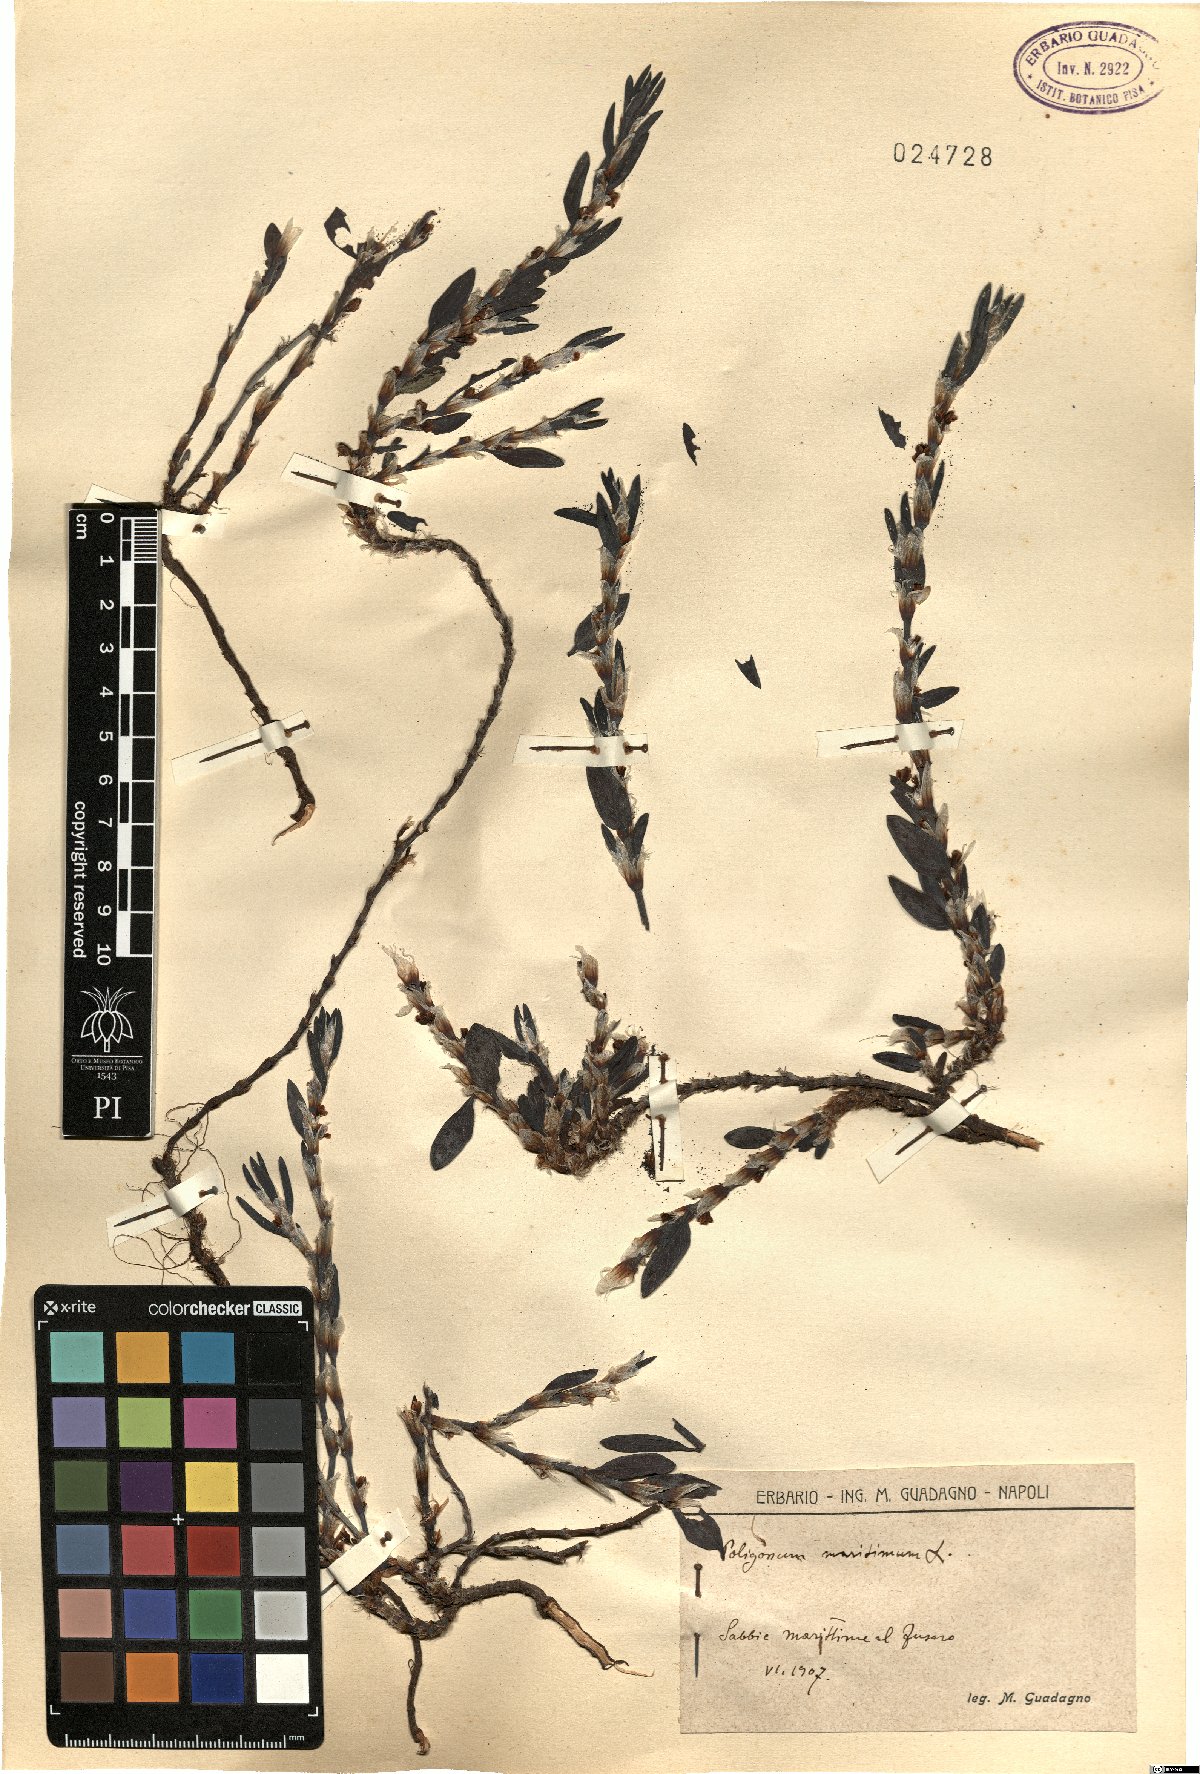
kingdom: Plantae
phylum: Tracheophyta
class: Magnoliopsida
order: Caryophyllales
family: Polygonaceae
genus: Polygonum
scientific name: Polygonum maritimum
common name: Sea knotgrass
